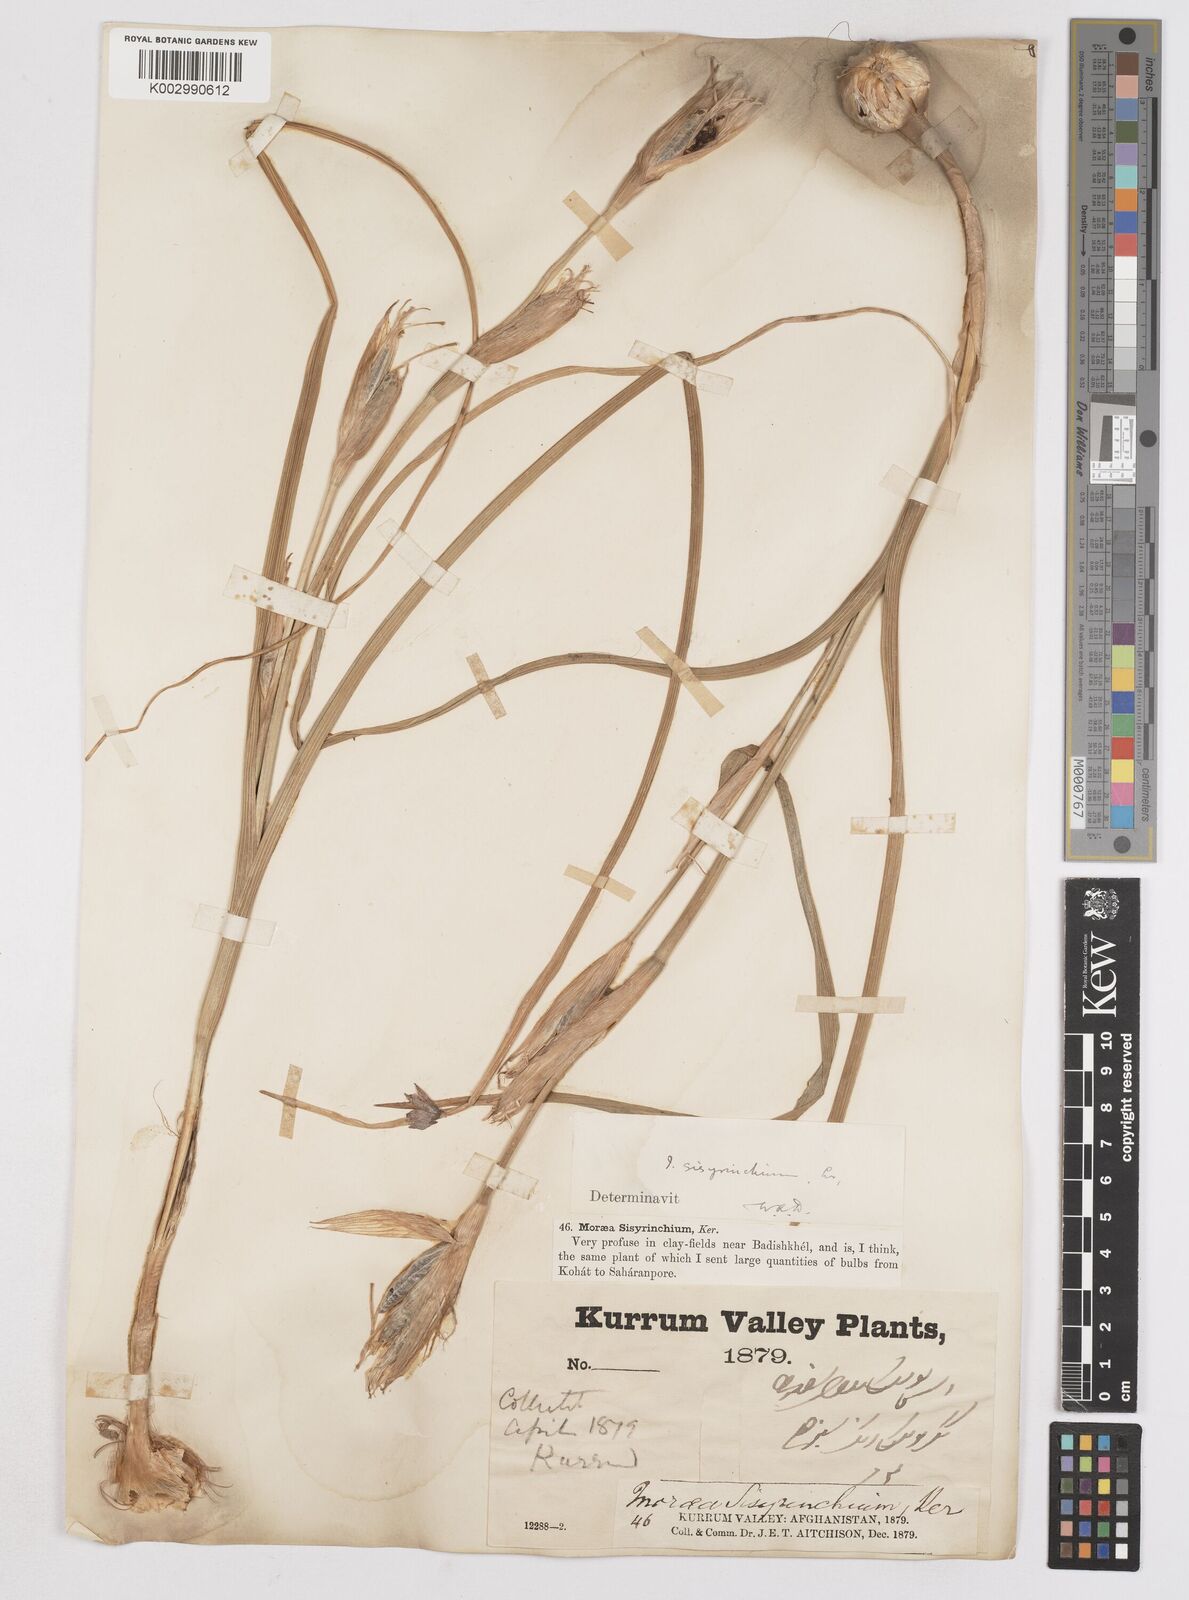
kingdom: Plantae
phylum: Tracheophyta
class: Liliopsida
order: Asparagales
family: Iridaceae
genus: Moraea
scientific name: Moraea sisyrinchium
